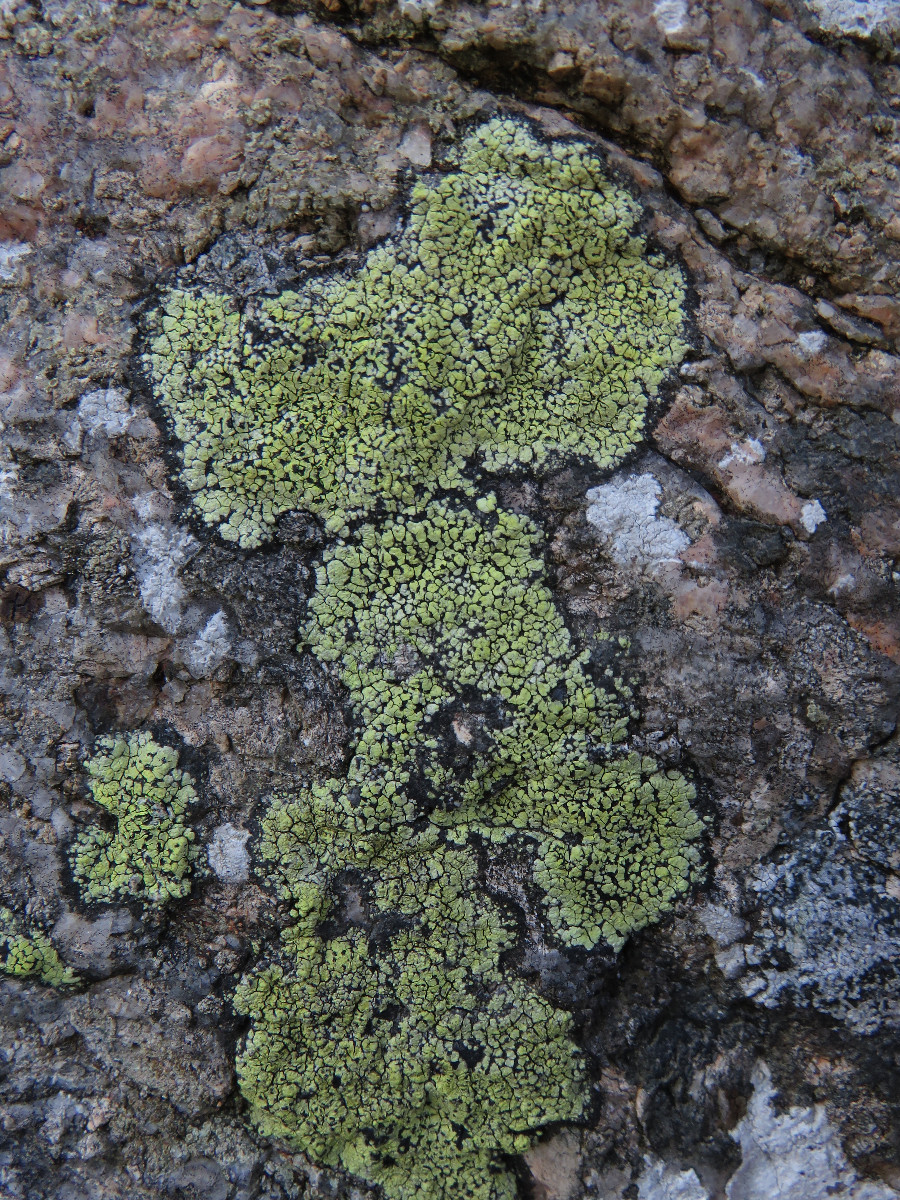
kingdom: Fungi
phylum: Ascomycota
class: Lecanoromycetes
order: Rhizocarpales
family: Rhizocarpaceae
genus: Rhizocarpon
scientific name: Rhizocarpon geographicum
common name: gulgrøn landkortlav
